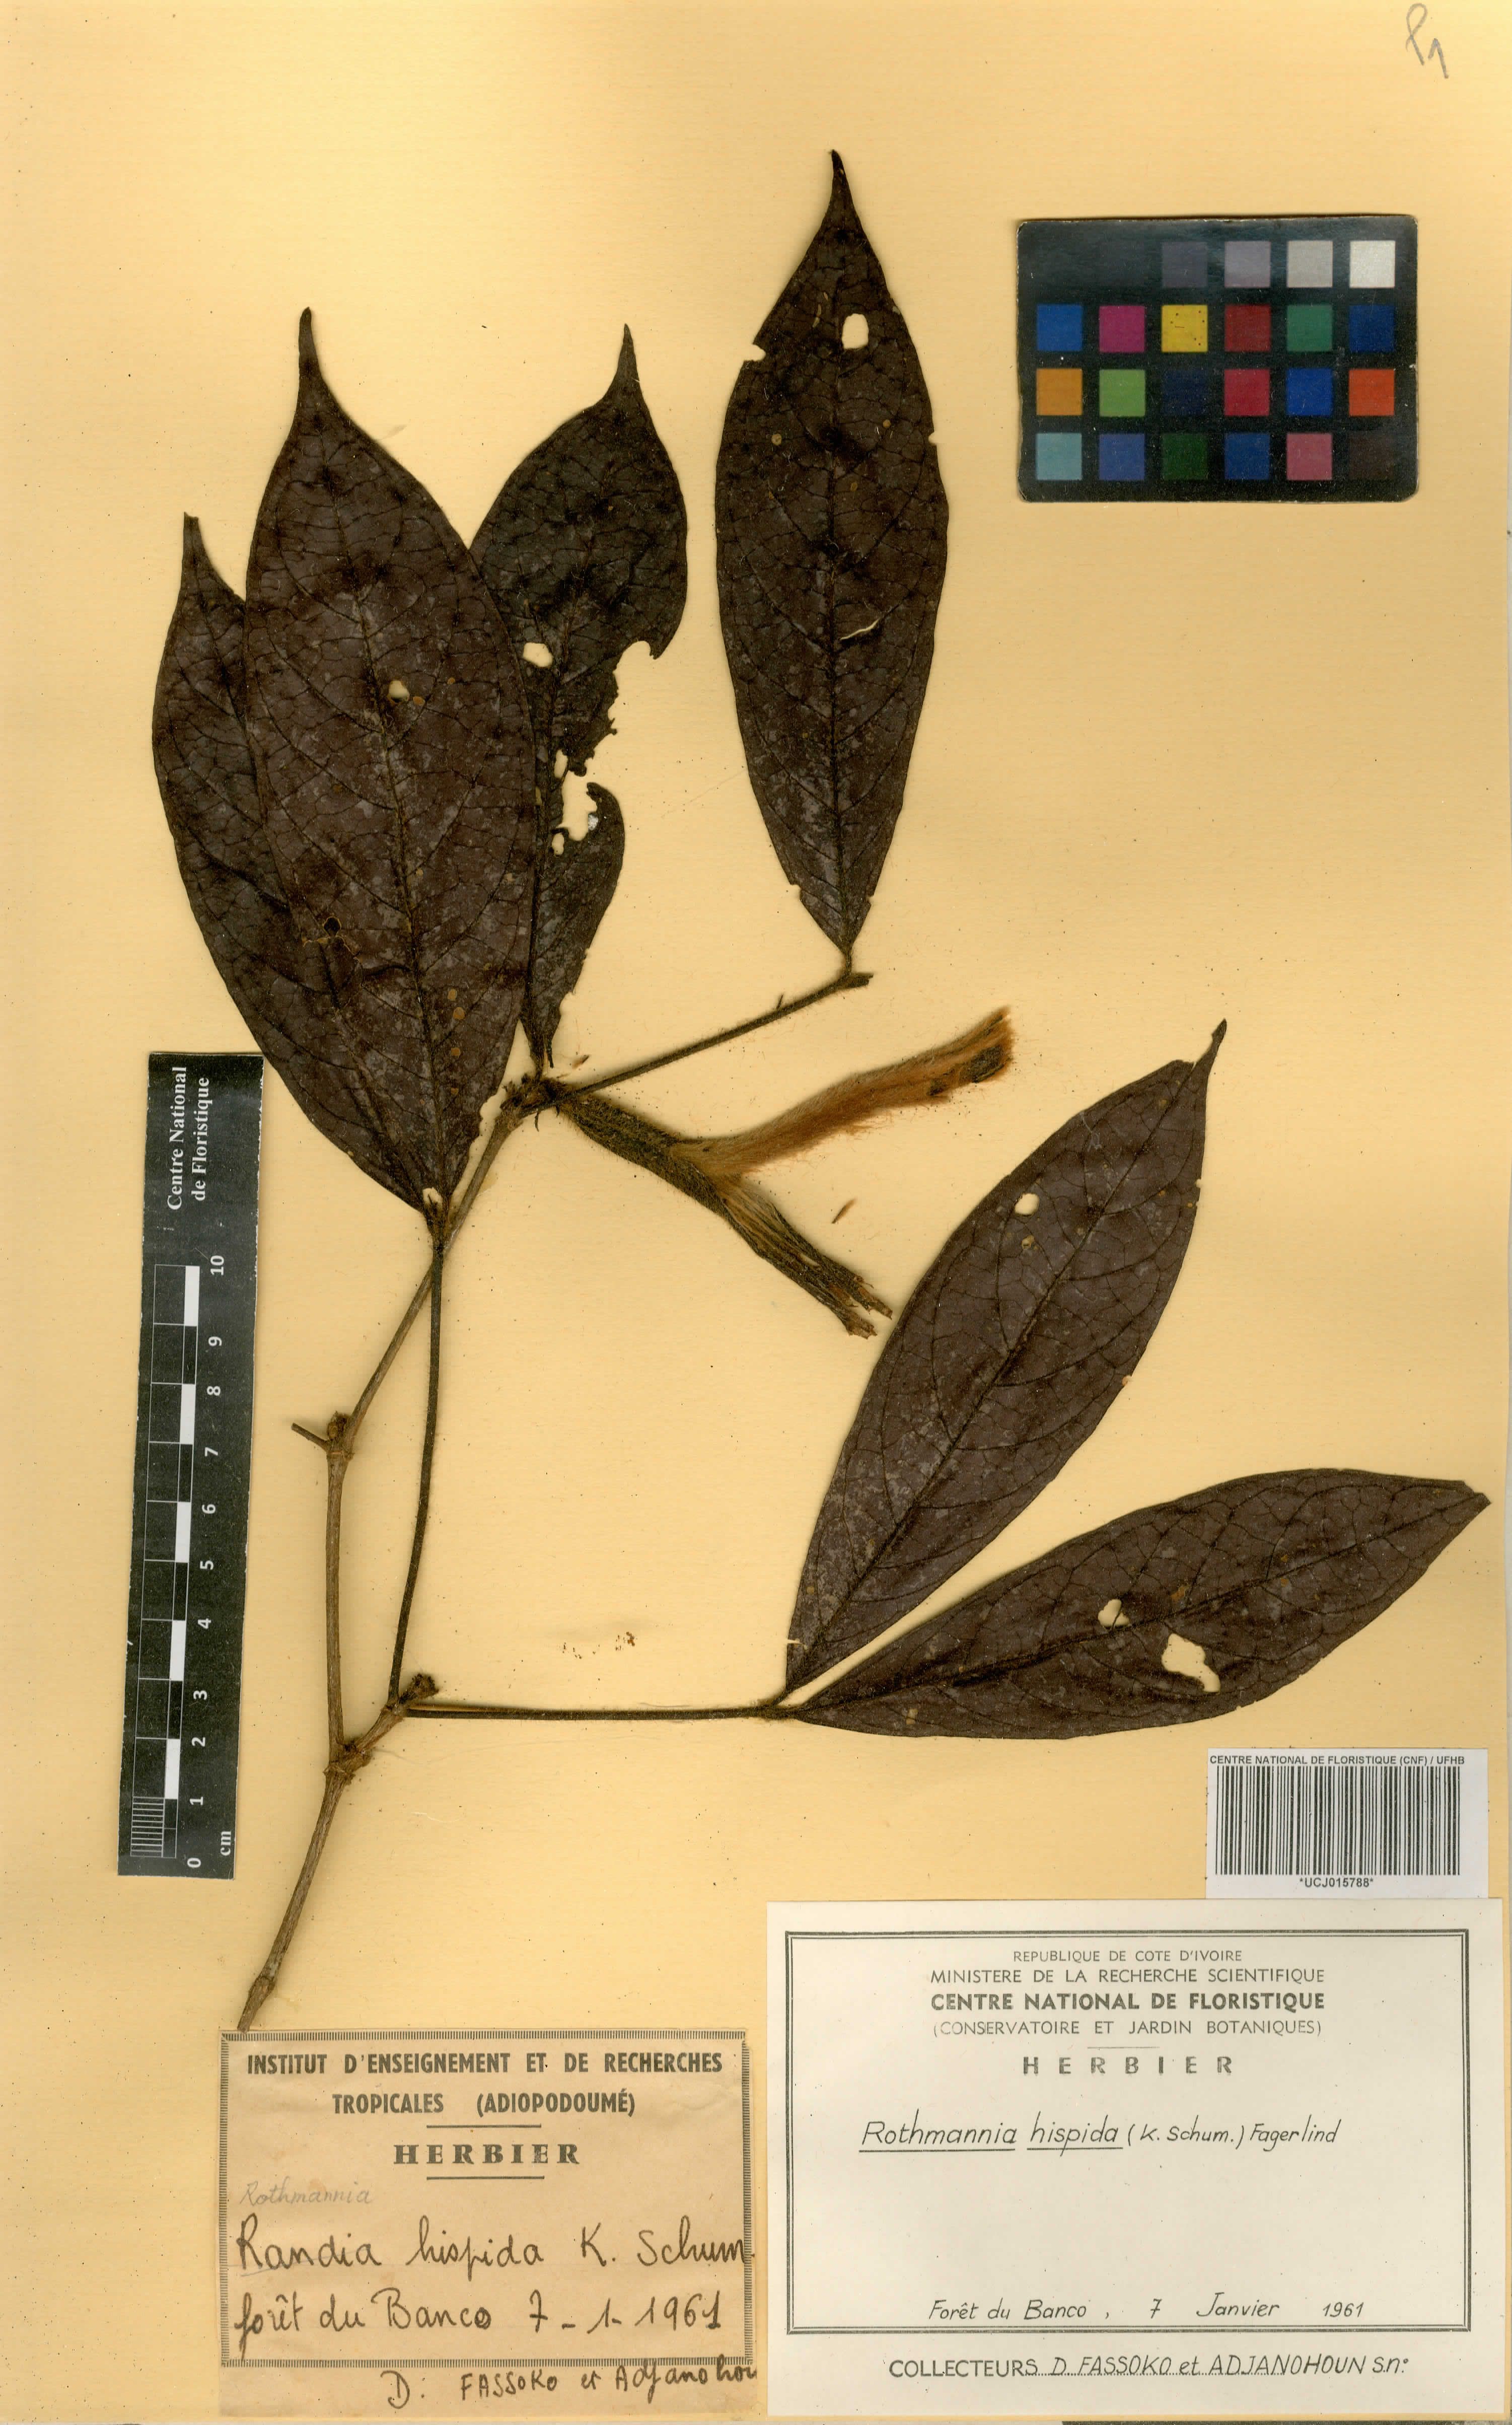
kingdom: Plantae
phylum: Tracheophyta
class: Magnoliopsida
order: Gentianales
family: Rubiaceae
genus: Rothmannia
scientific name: Rothmannia hispida
